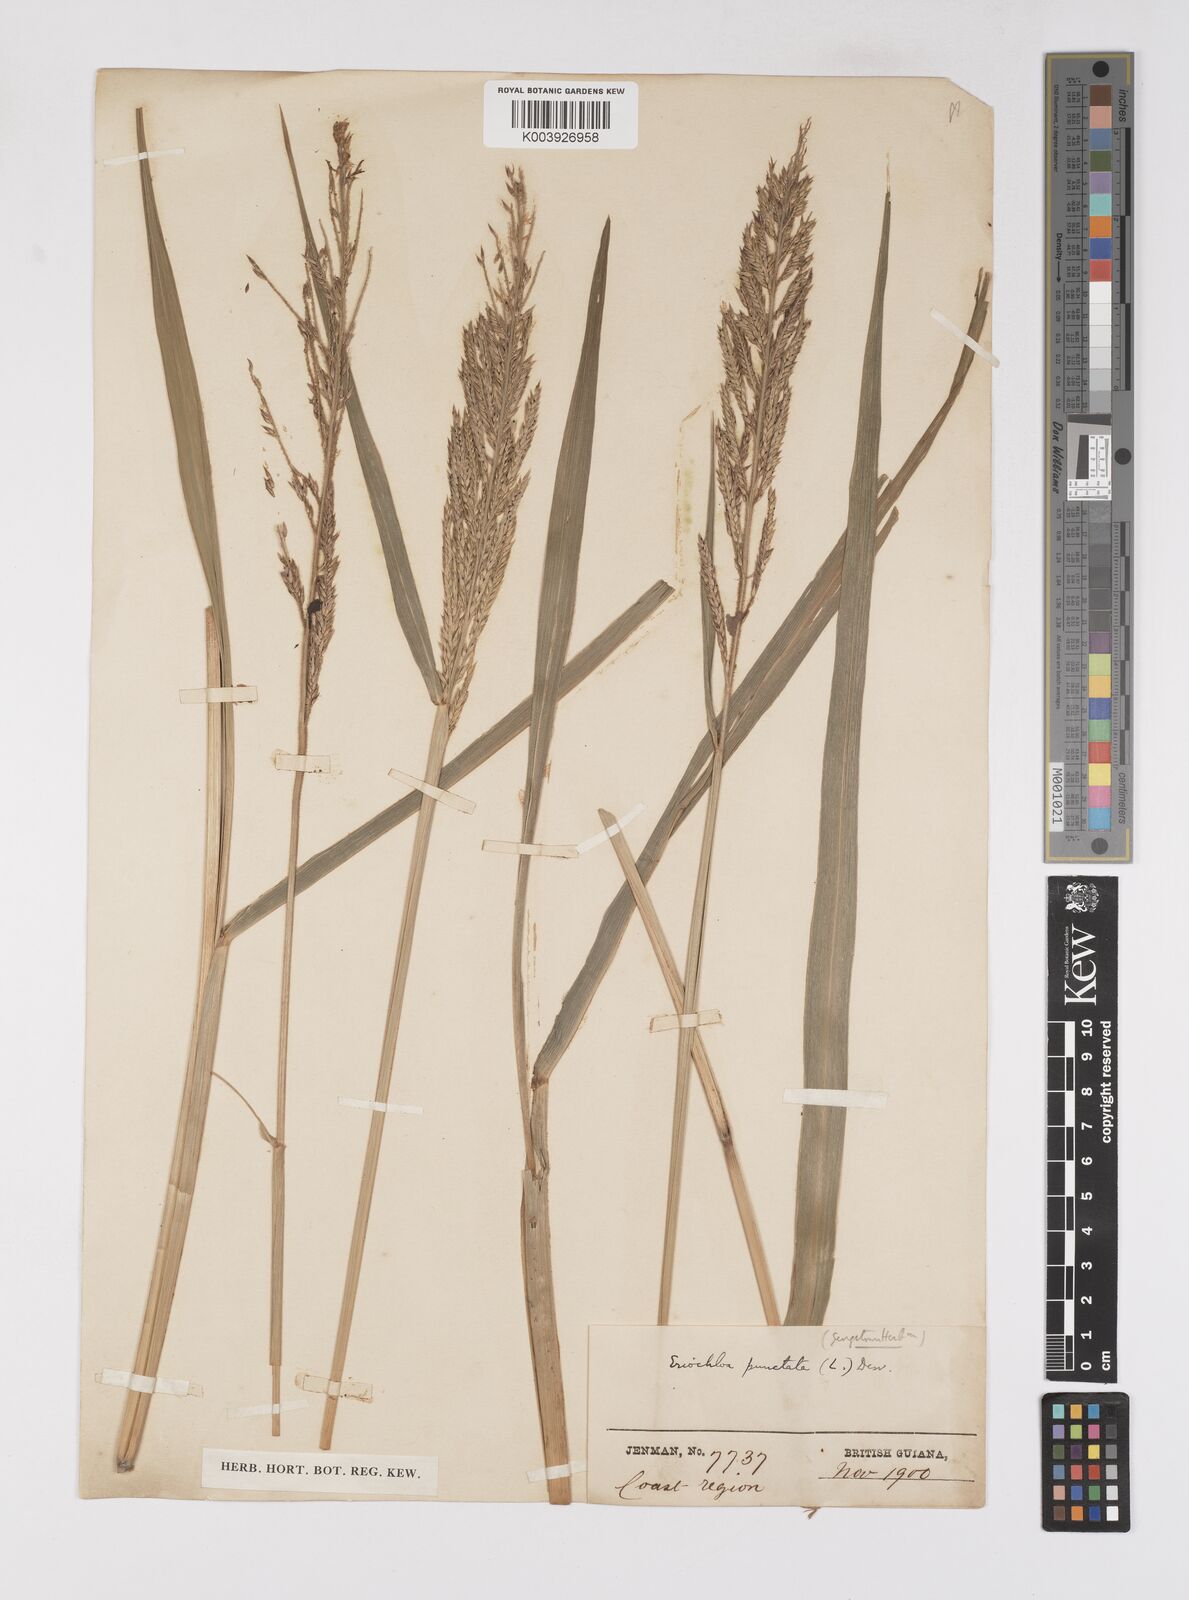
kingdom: Plantae
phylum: Tracheophyta
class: Liliopsida
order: Poales
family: Poaceae
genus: Eriochloa
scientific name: Eriochloa punctata
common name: Louisiana cupgrass
